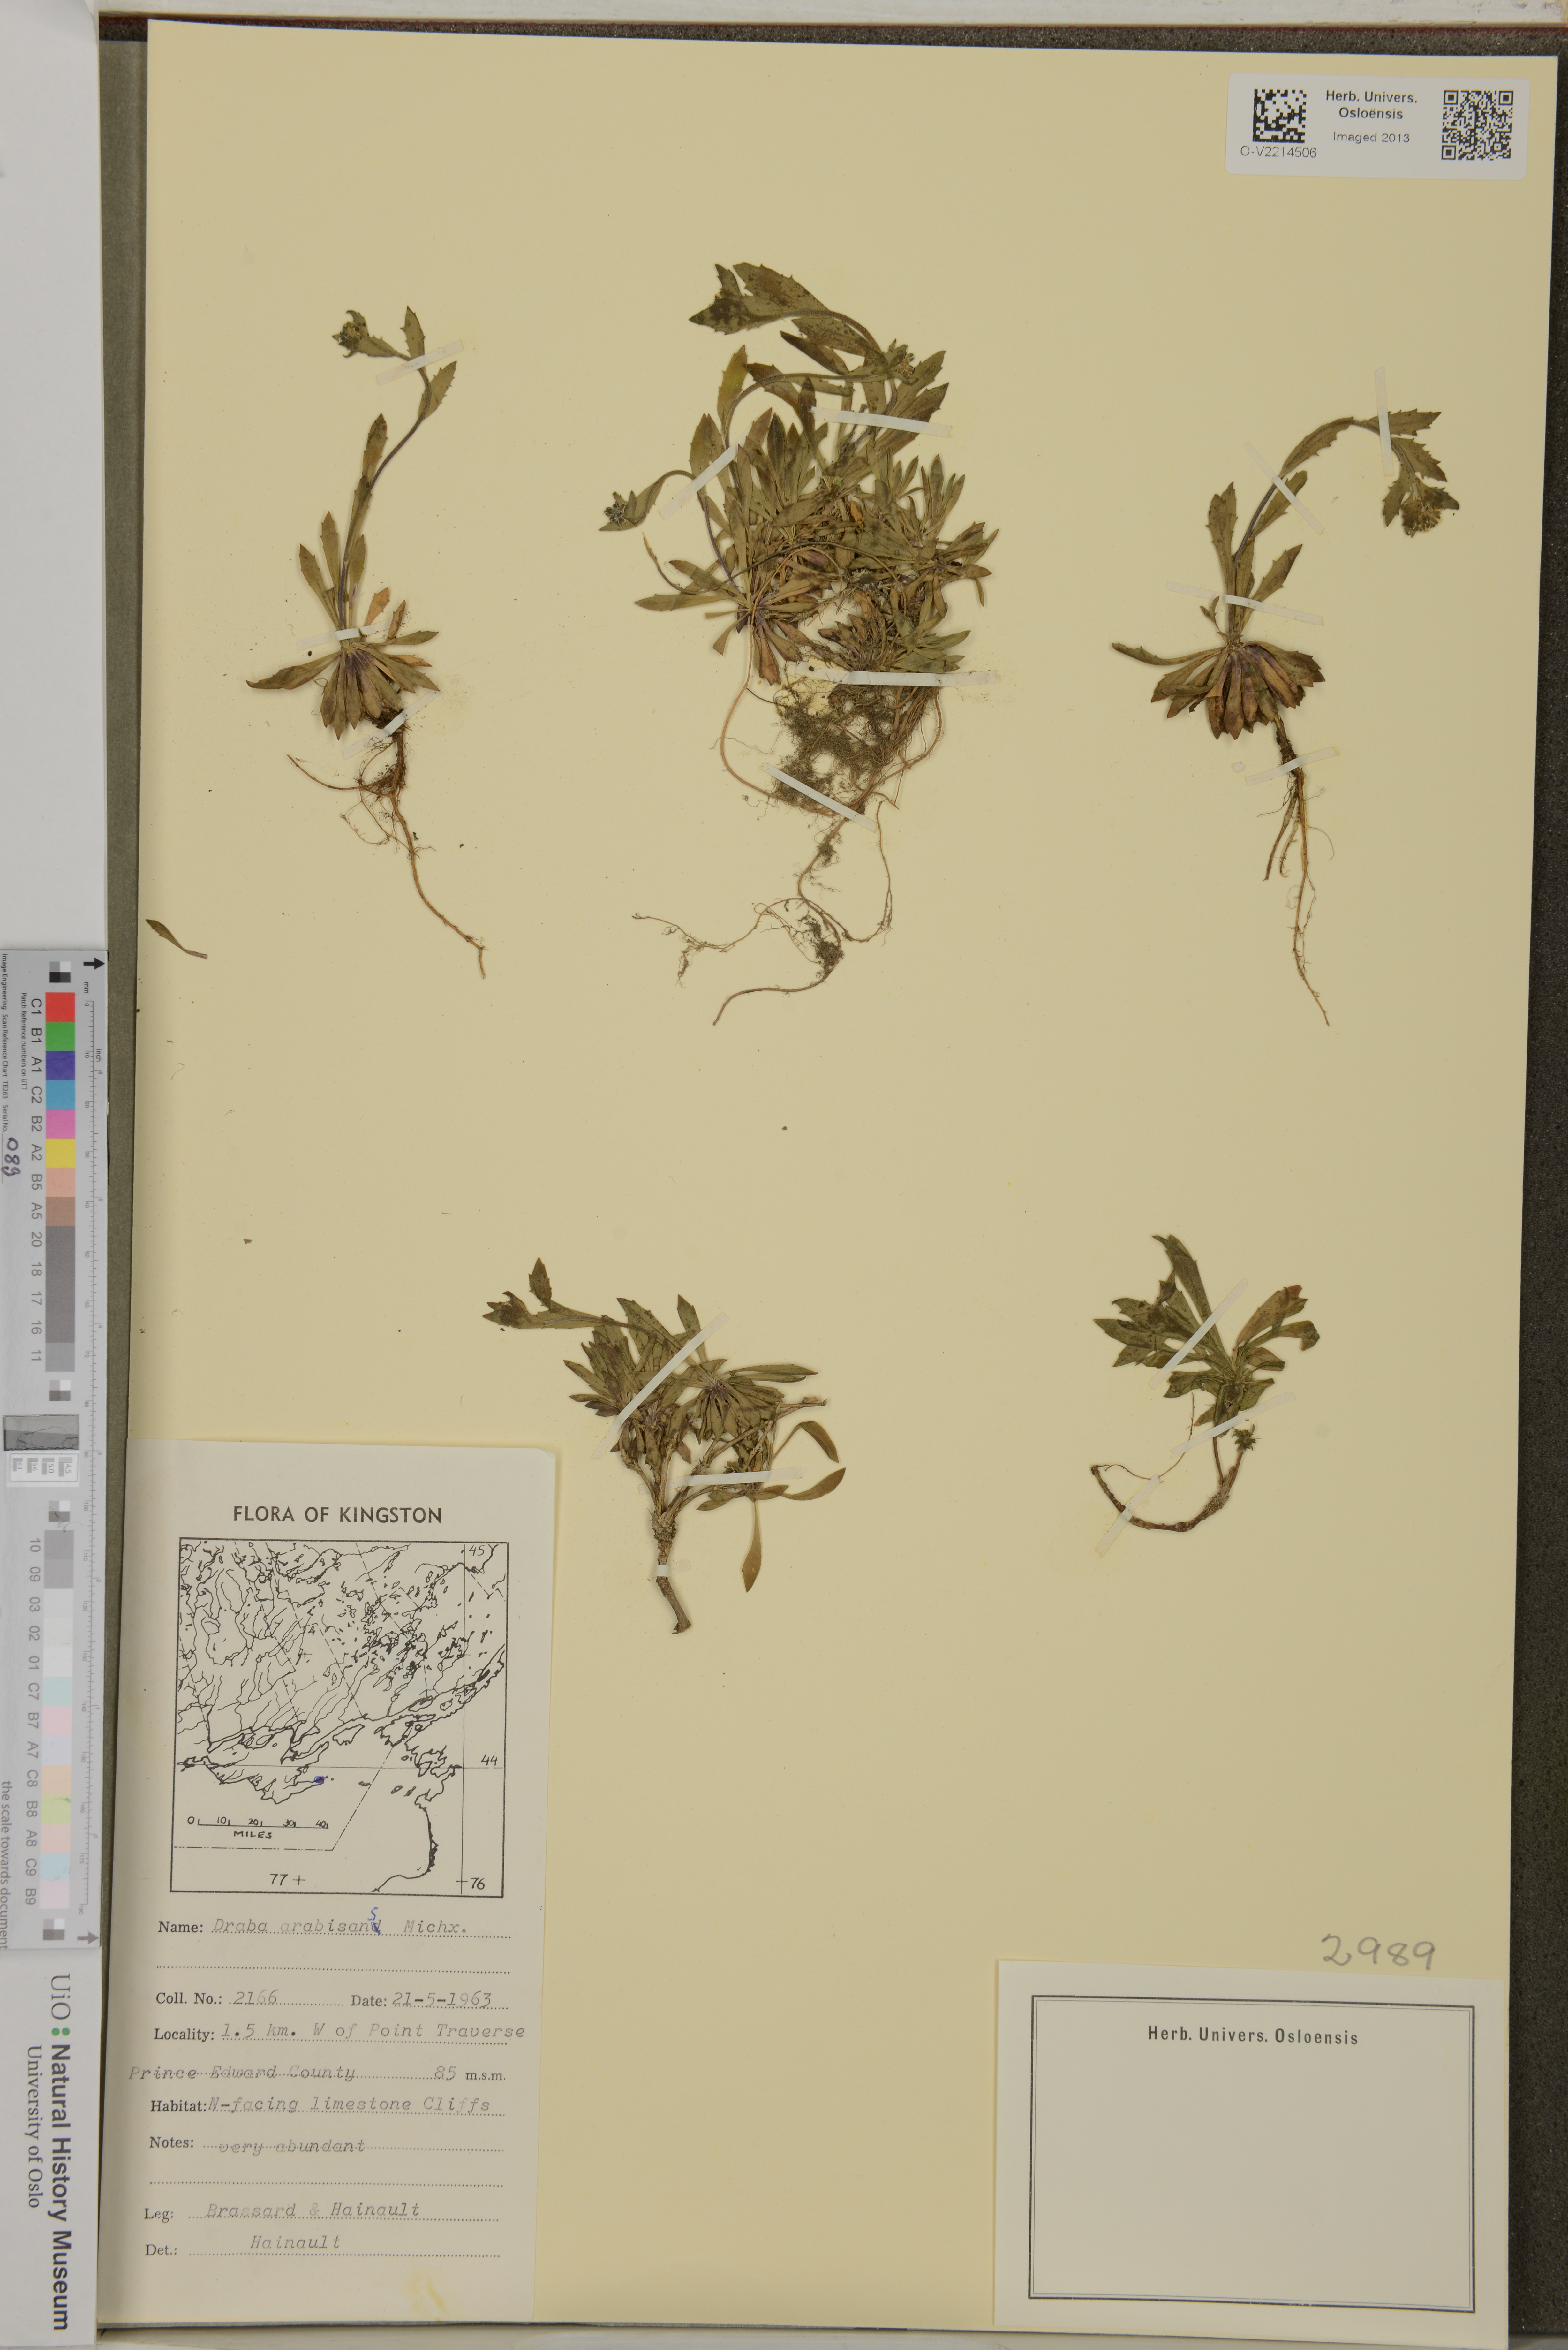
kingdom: Plantae
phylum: Tracheophyta
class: Magnoliopsida
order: Brassicales
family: Brassicaceae
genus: Draba
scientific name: Draba arabisans
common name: Rock draba
